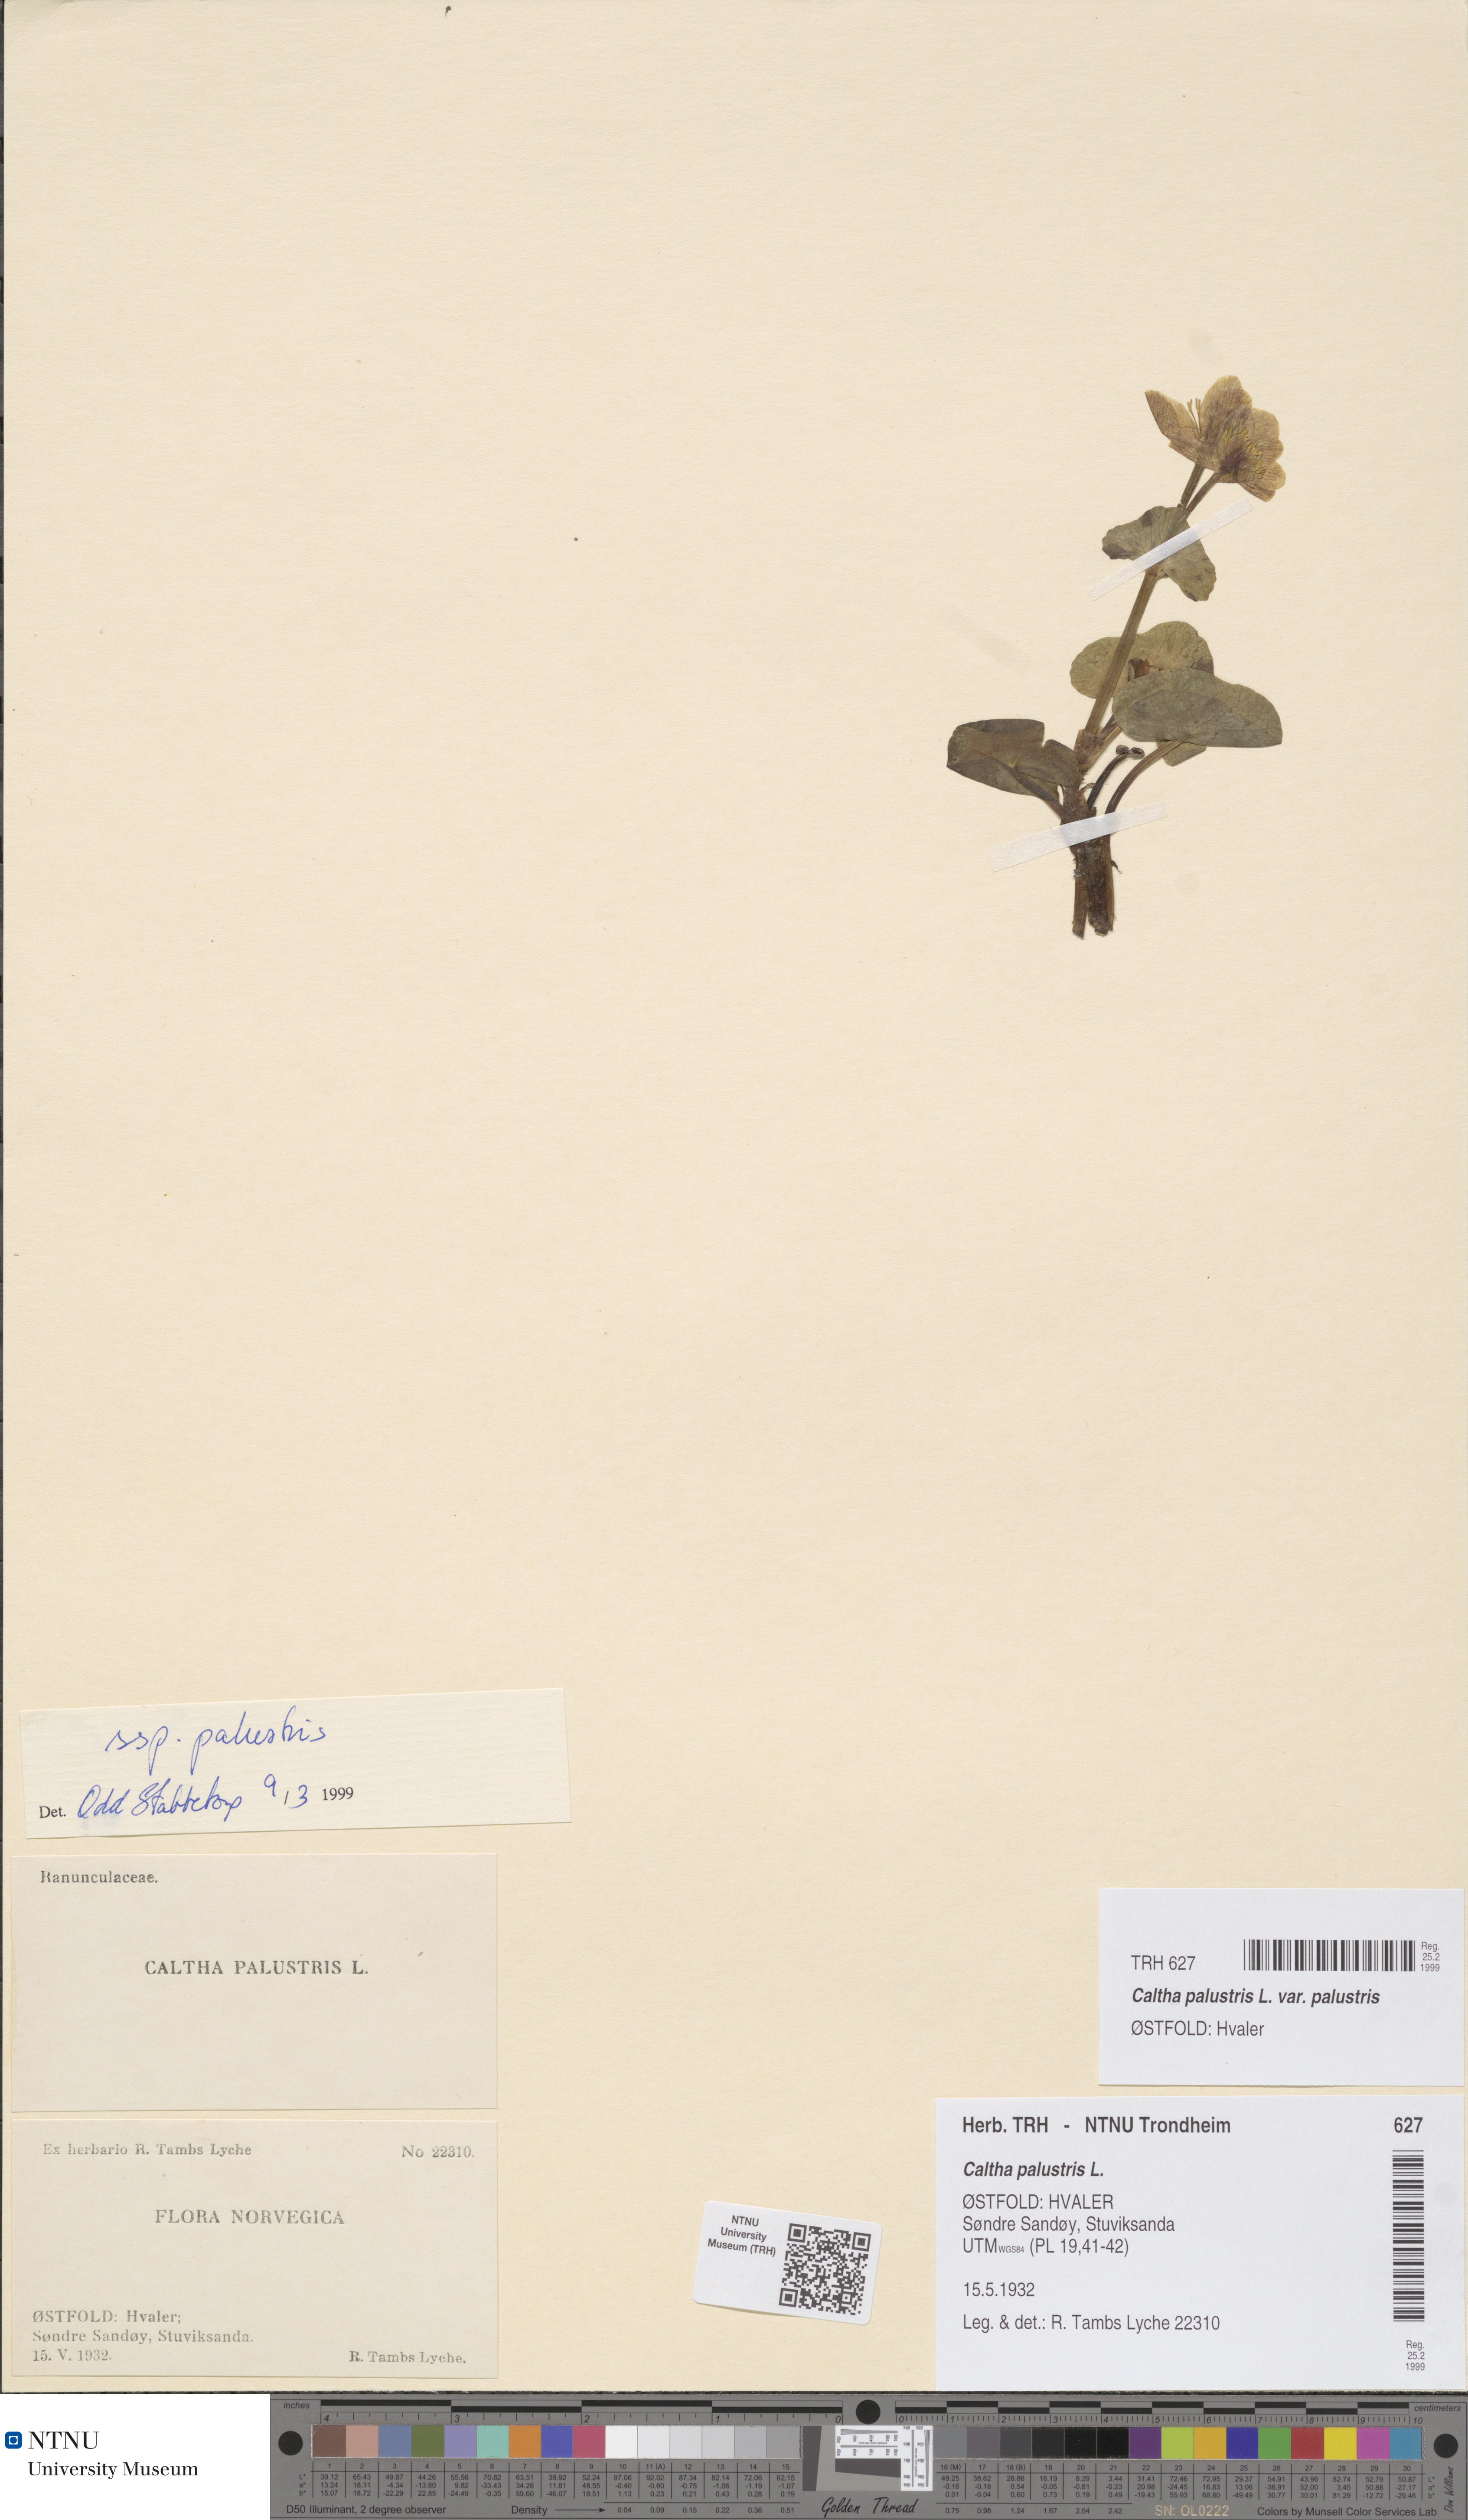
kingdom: Plantae
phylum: Tracheophyta
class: Magnoliopsida
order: Ranunculales
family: Ranunculaceae
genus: Caltha
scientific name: Caltha palustris
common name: Marsh marigold
